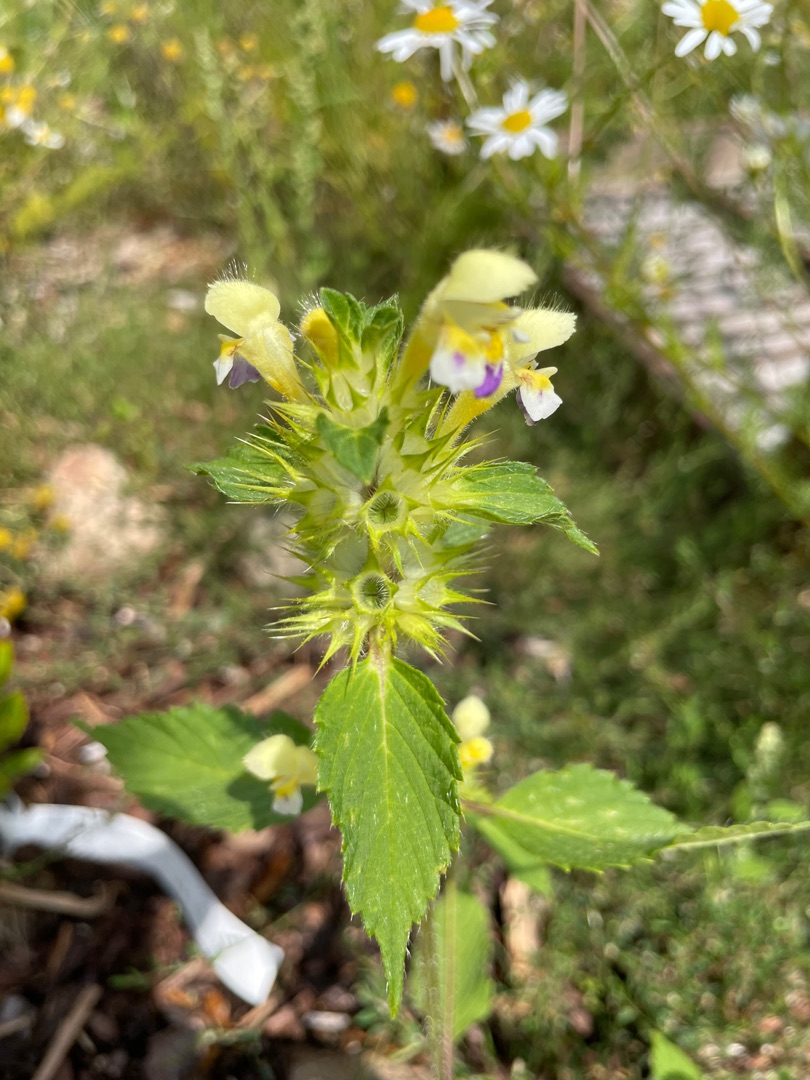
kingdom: Plantae
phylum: Tracheophyta
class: Magnoliopsida
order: Lamiales
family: Lamiaceae
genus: Galeopsis
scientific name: Galeopsis speciosa
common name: Hamp-hanekro
